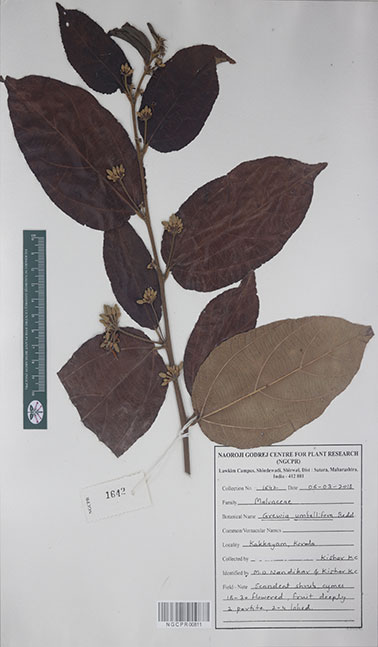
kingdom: Plantae
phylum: Tracheophyta
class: Magnoliopsida
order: Malvales
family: Malvaceae
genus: Grewia
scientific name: Grewia umbellifera
